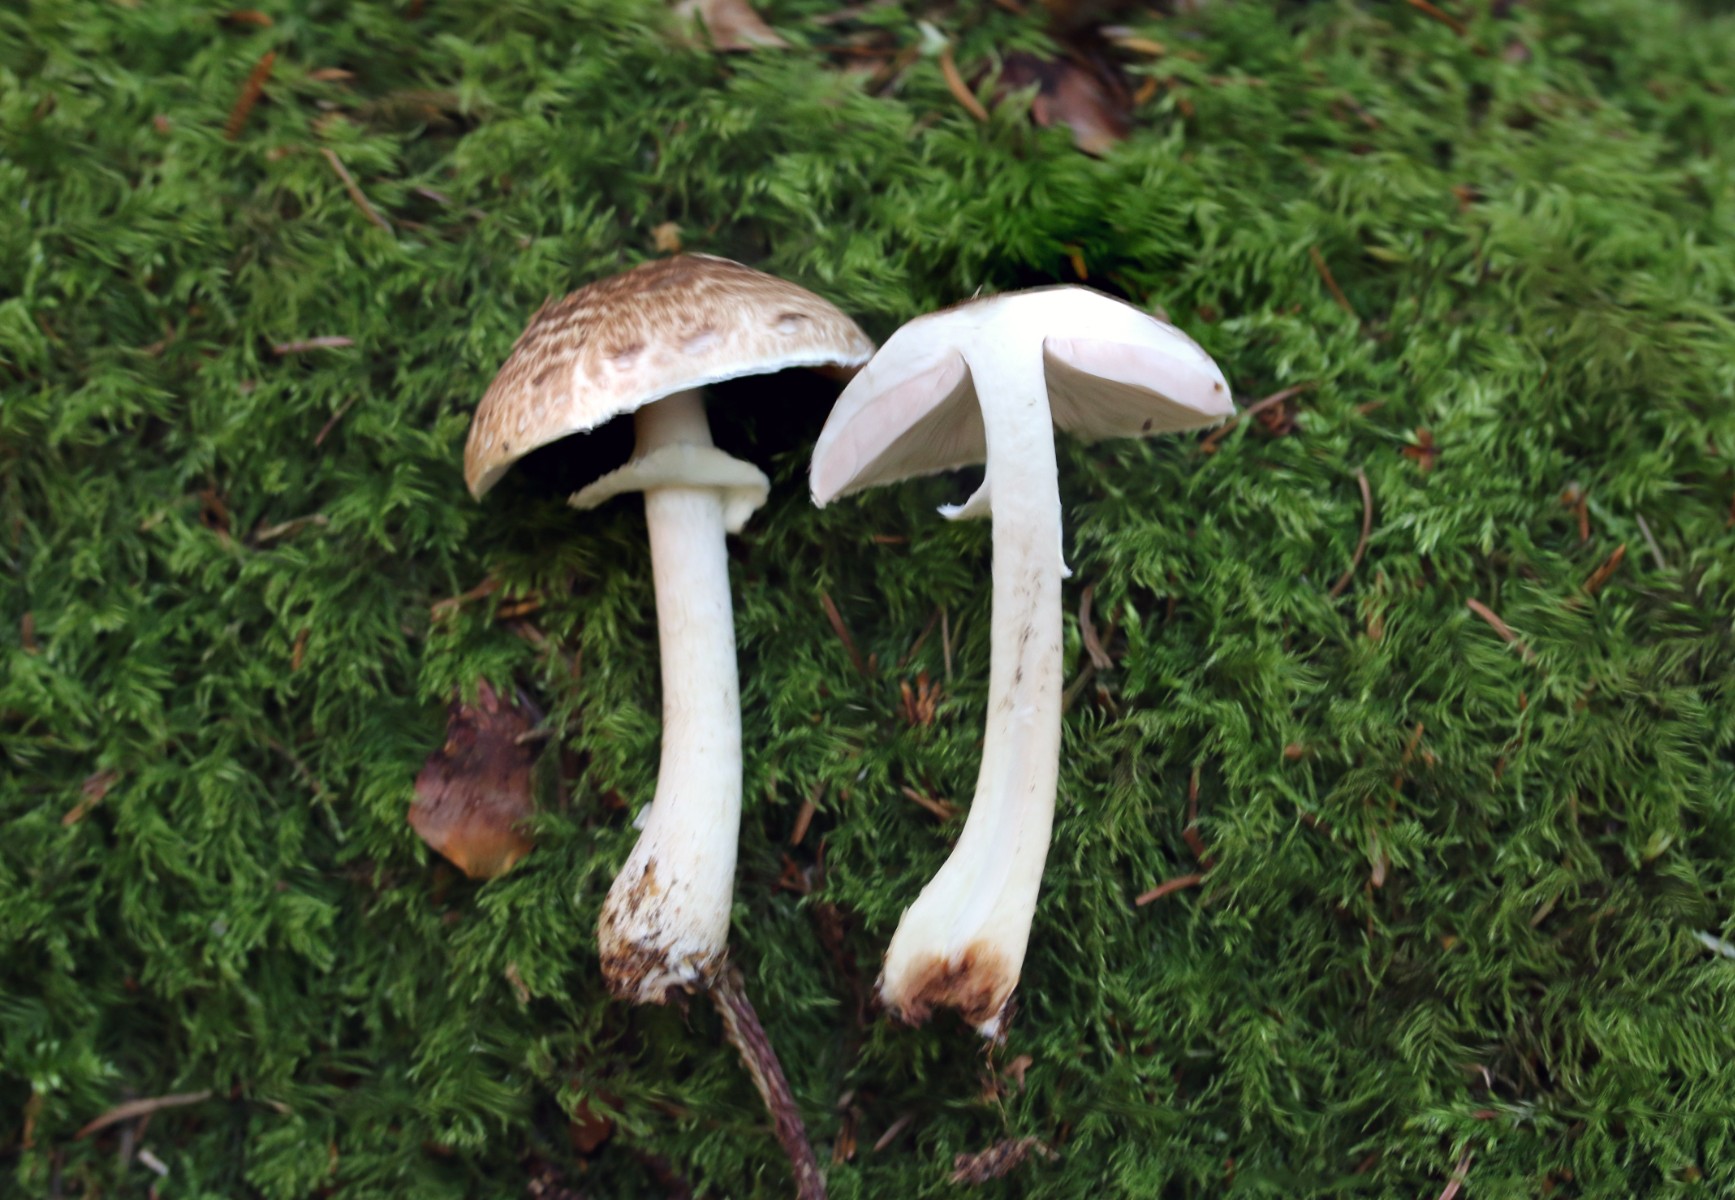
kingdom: Fungi
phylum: Basidiomycota
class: Agaricomycetes
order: Agaricales
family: Agaricaceae
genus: Agaricus
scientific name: Agaricus impudicus
